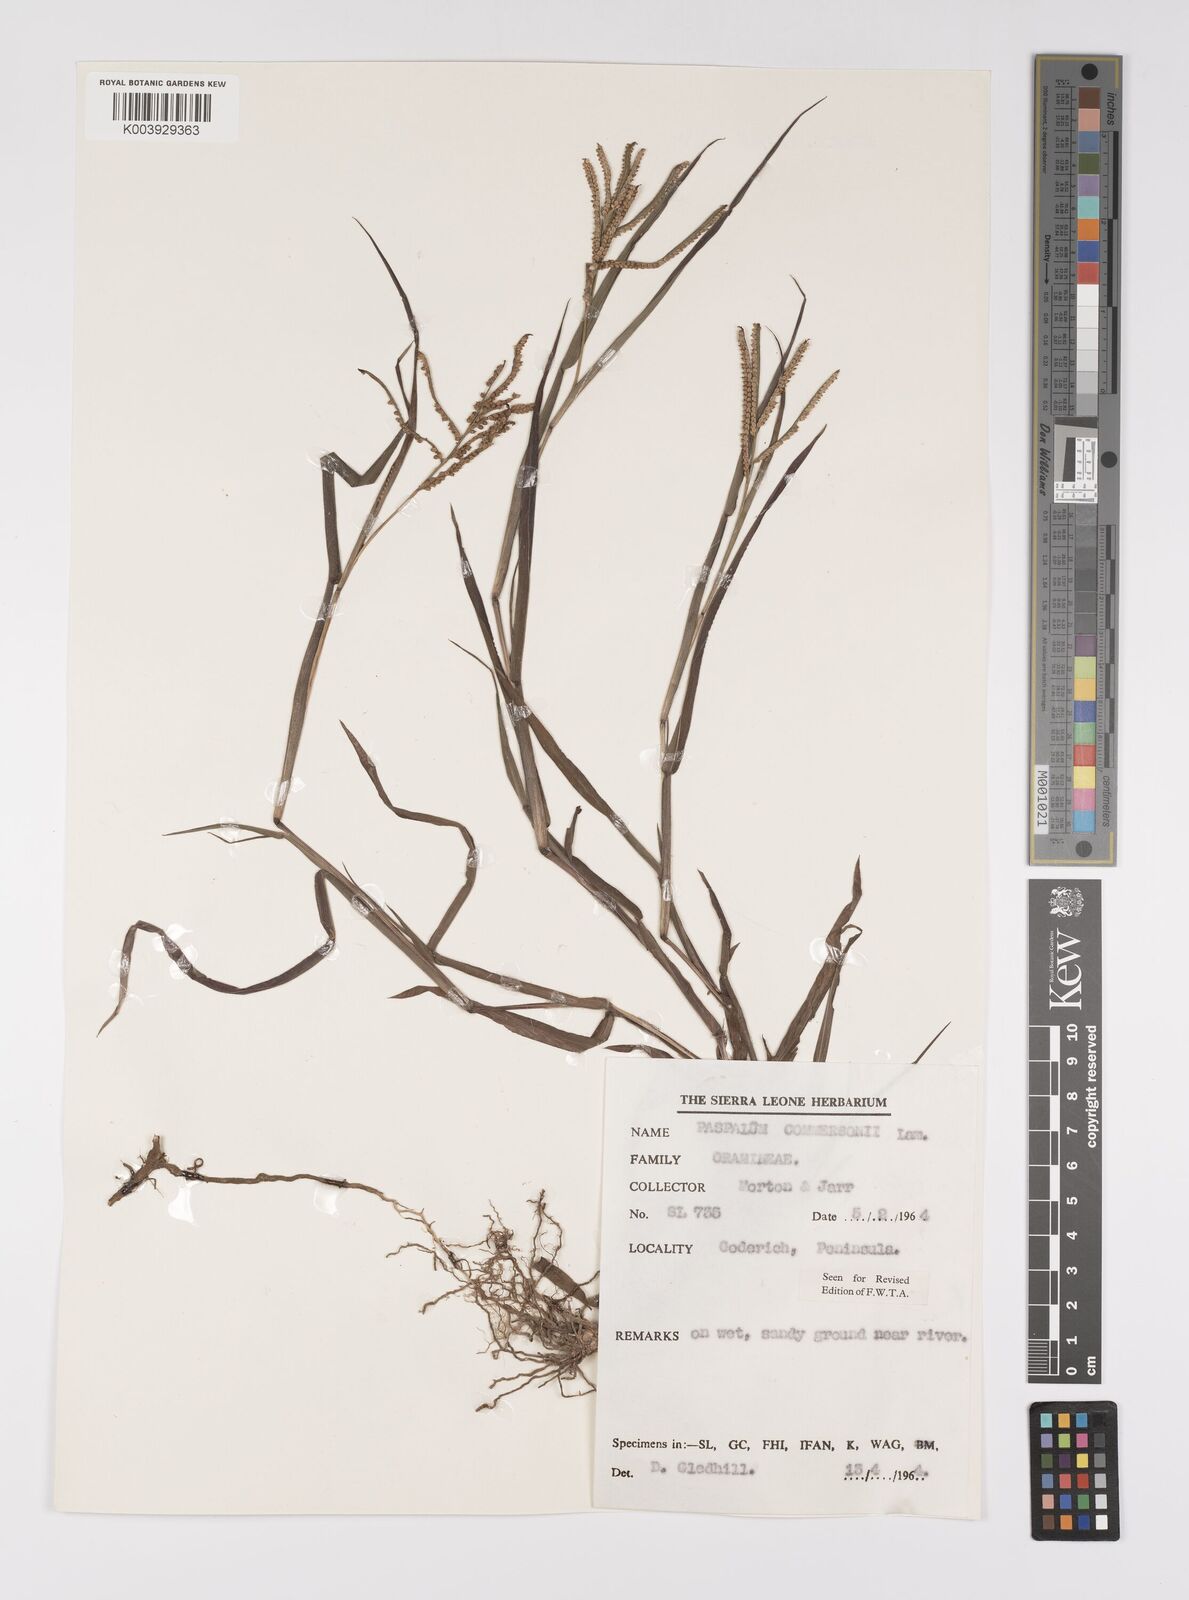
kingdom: Plantae
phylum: Tracheophyta
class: Liliopsida
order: Poales
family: Poaceae
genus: Paspalum
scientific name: Paspalum scrobiculatum
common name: Kodo millet
